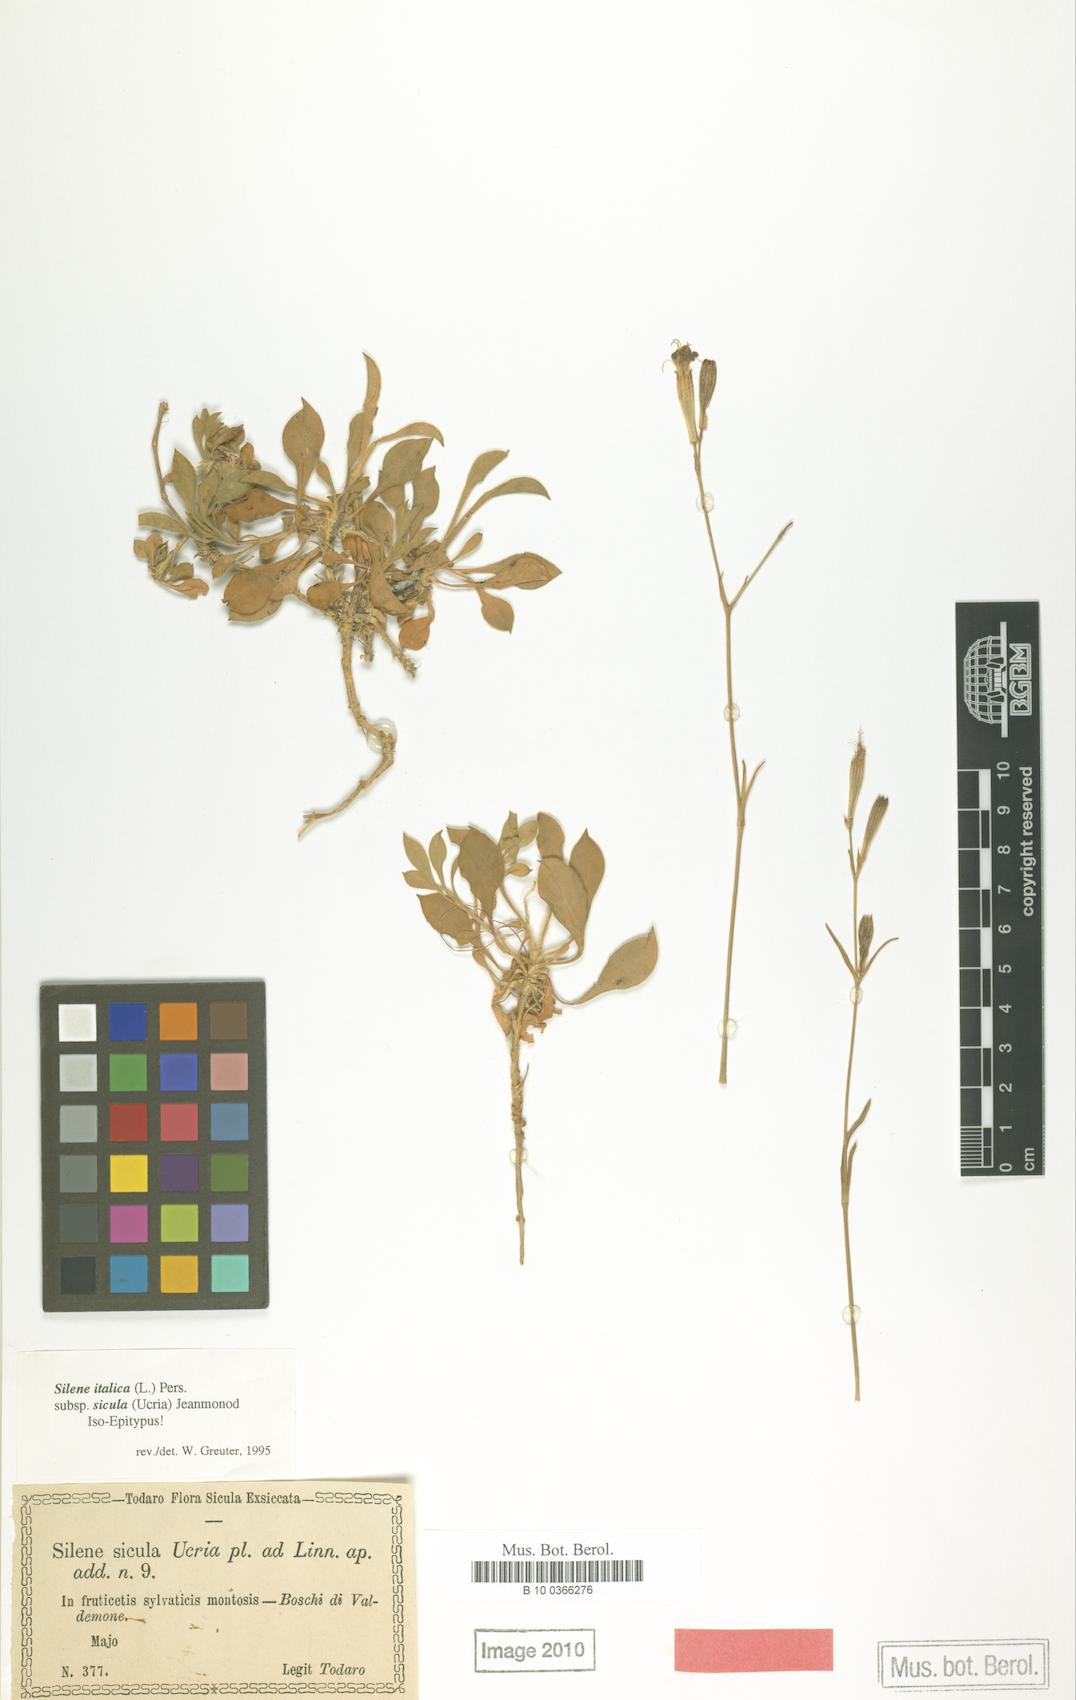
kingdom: Plantae
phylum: Tracheophyta
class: Magnoliopsida
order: Caryophyllales
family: Caryophyllaceae
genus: Silene
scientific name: Silene italica
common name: Italian catchfly
